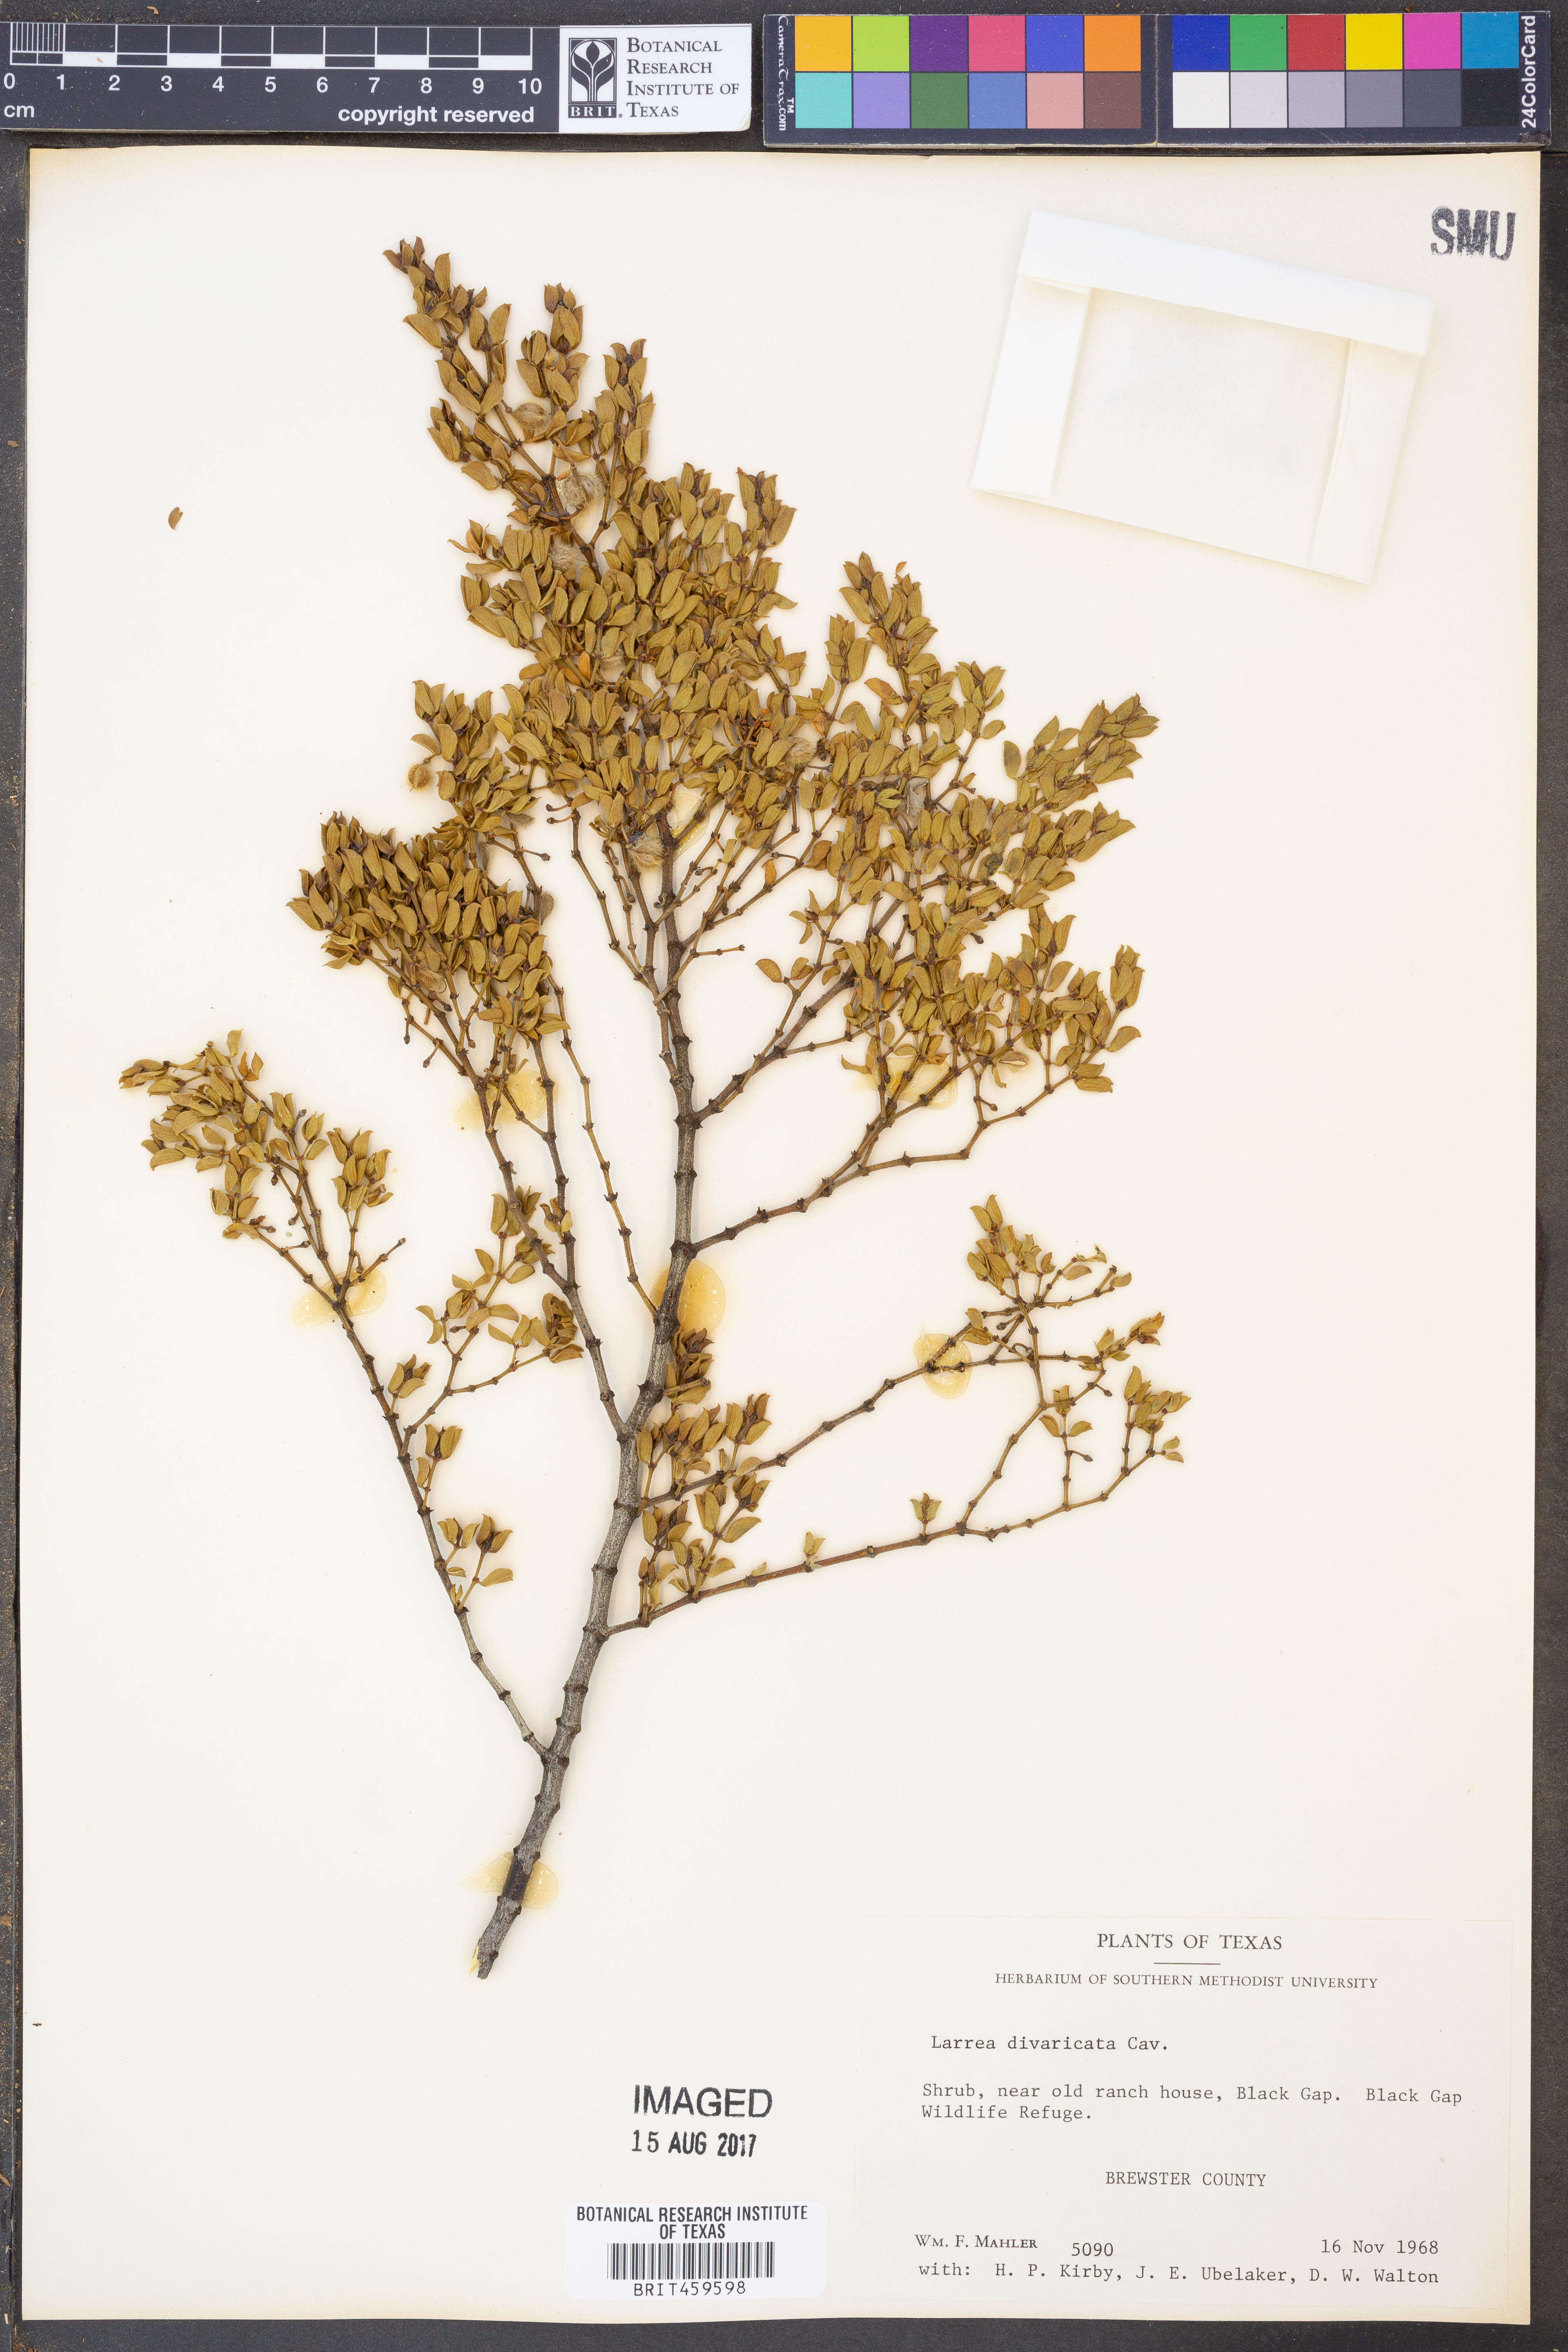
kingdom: Plantae
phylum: Tracheophyta
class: Magnoliopsida
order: Zygophyllales
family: Zygophyllaceae
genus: Larrea
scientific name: Larrea divaricata
